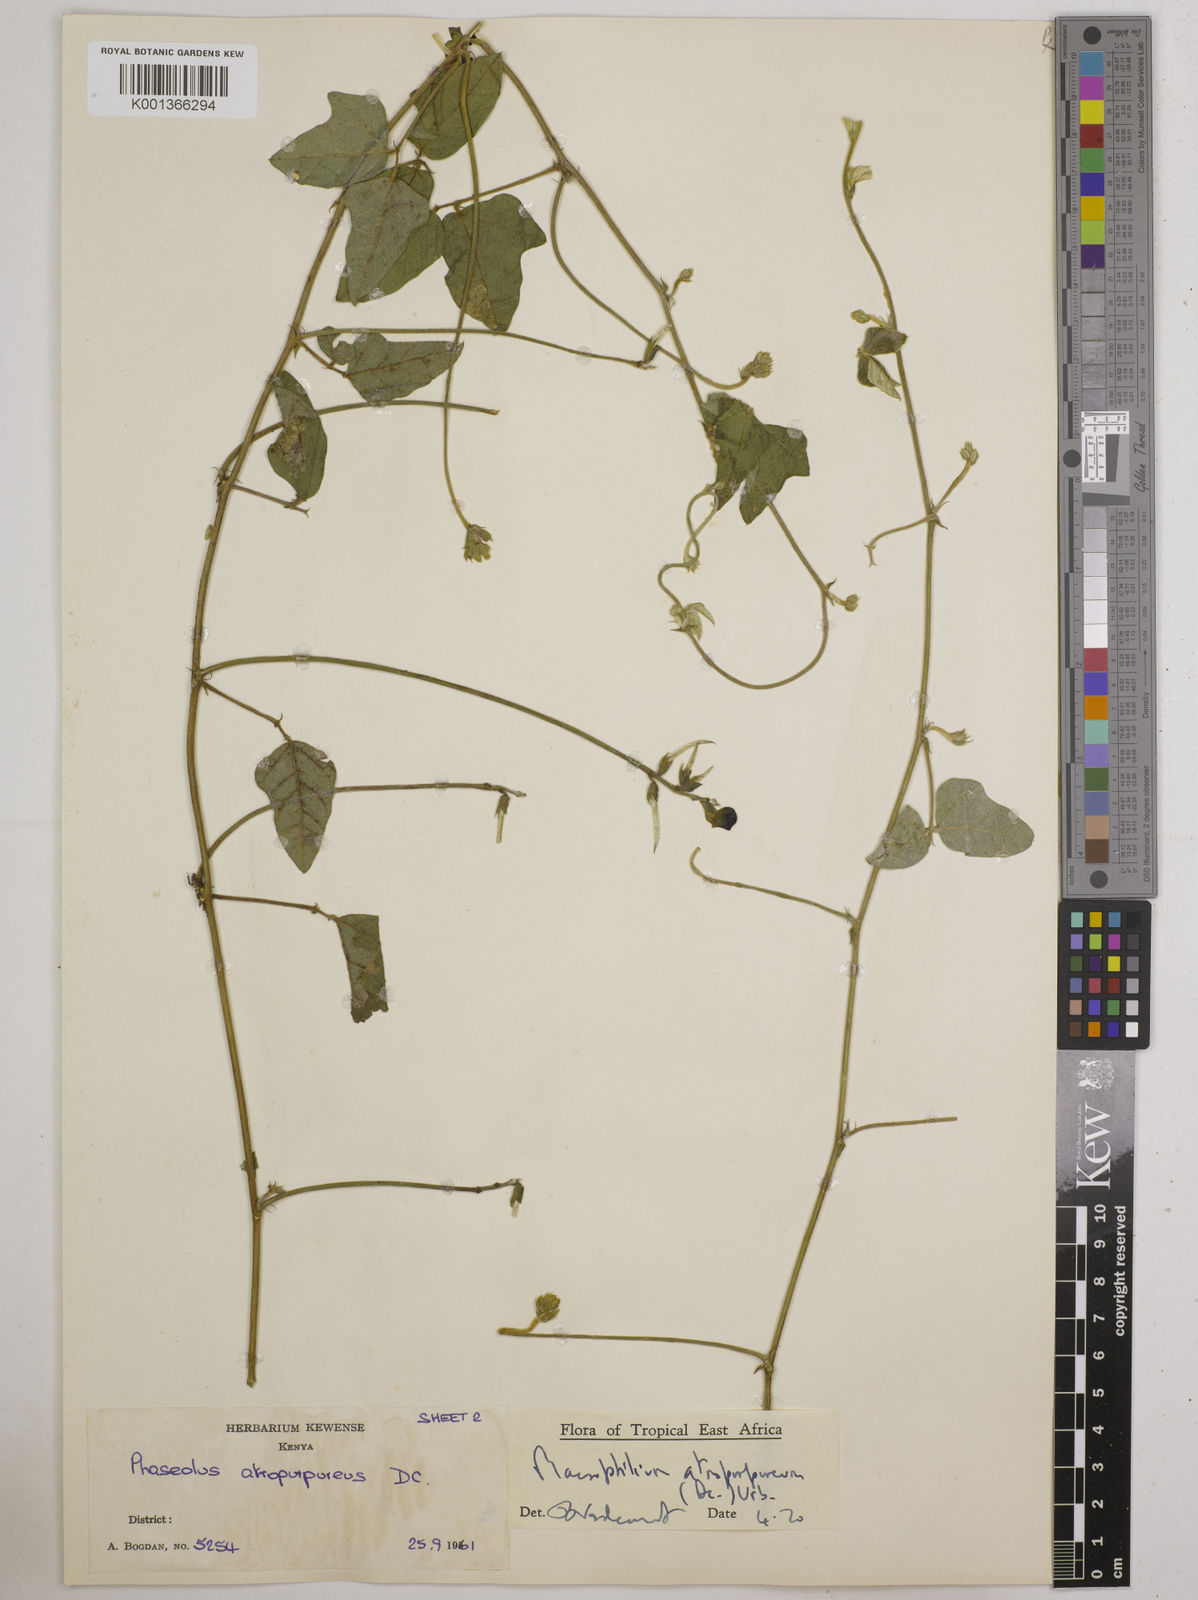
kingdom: Plantae
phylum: Tracheophyta
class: Magnoliopsida
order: Fabales
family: Fabaceae
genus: Macroptilium
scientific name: Macroptilium atropurpureum
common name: Purple bushbean
